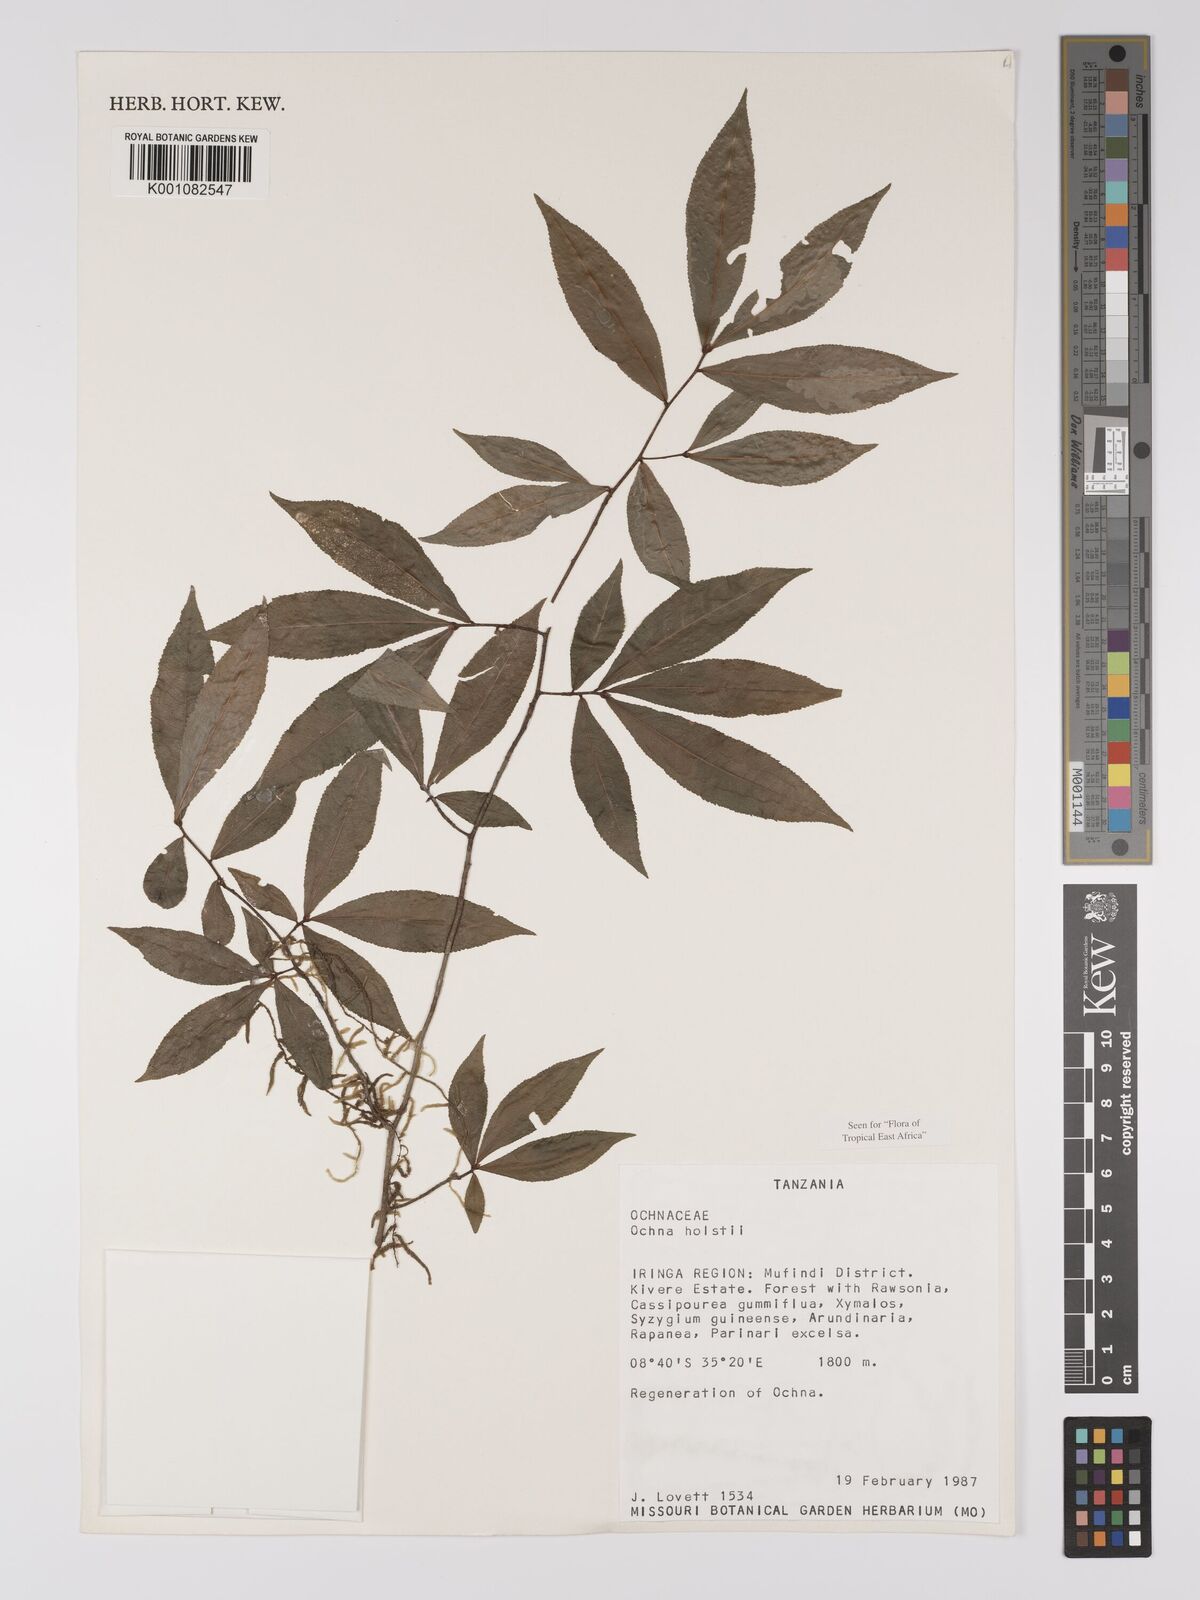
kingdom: Plantae
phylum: Tracheophyta
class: Magnoliopsida
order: Malpighiales
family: Ochnaceae
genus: Ochna
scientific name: Ochna holstii
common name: Red ironwood
